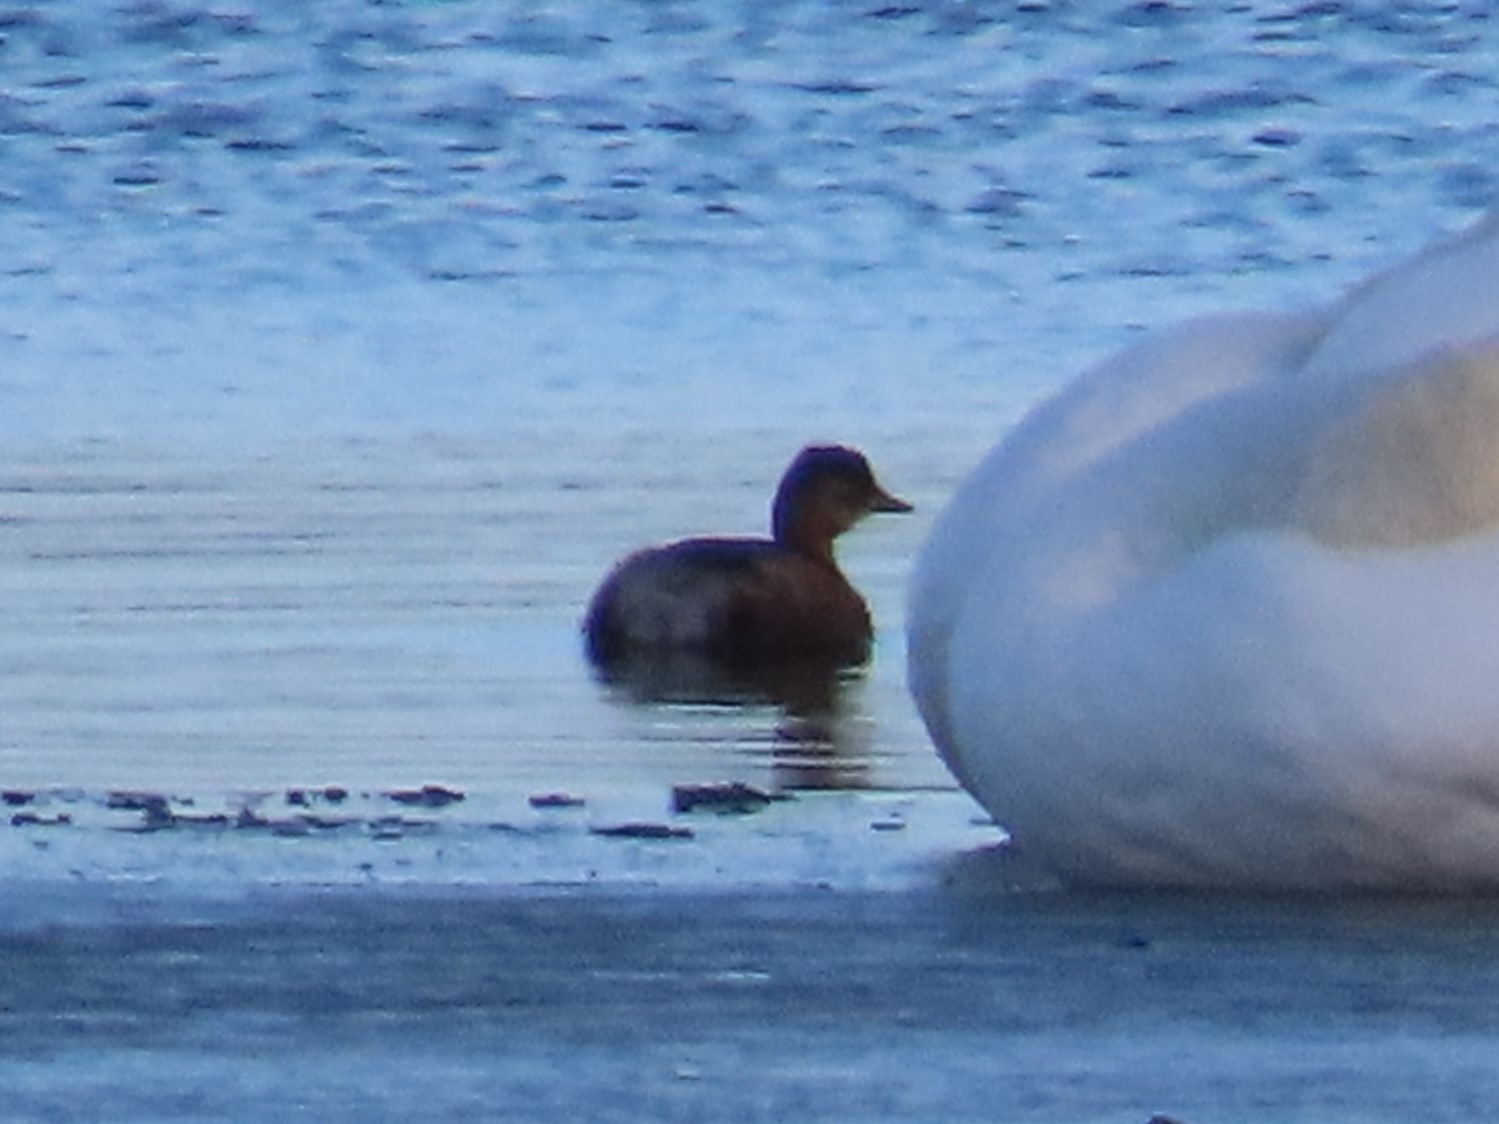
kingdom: Animalia
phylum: Chordata
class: Aves
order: Podicipediformes
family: Podicipedidae
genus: Tachybaptus
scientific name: Tachybaptus ruficollis
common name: Lille lappedykker
